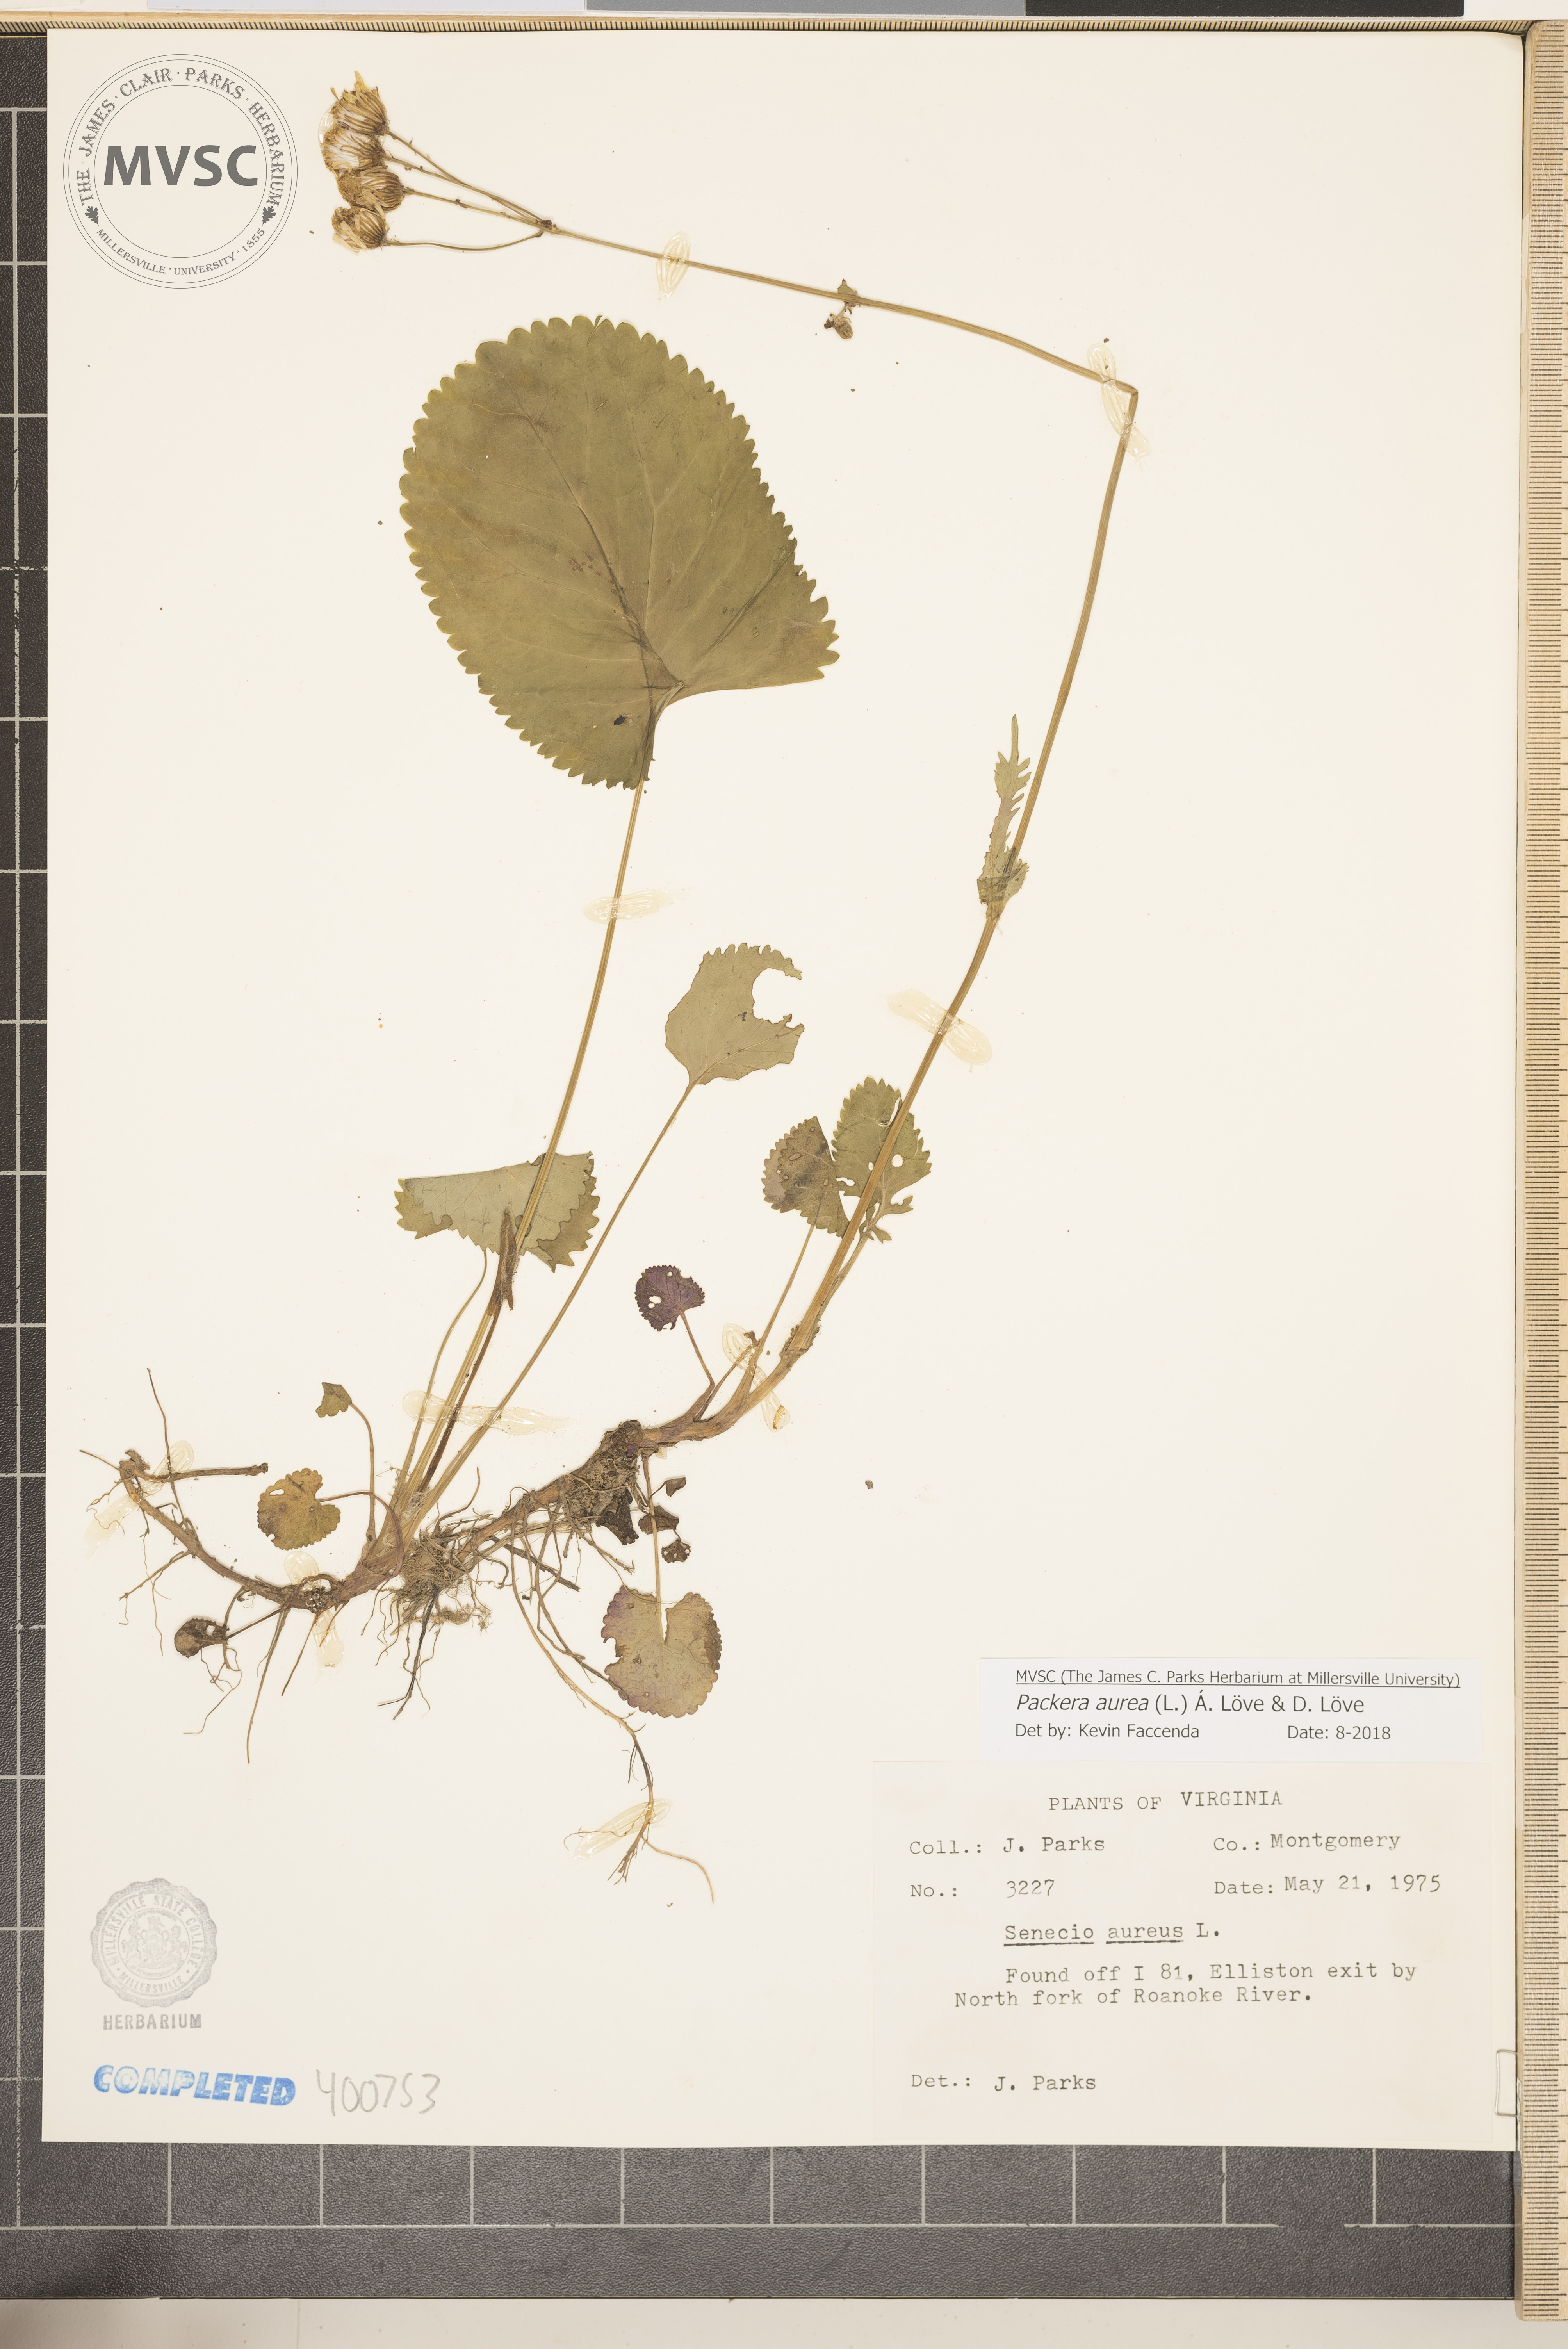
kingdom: Plantae
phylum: Tracheophyta
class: Magnoliopsida
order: Asterales
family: Asteraceae
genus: Packera
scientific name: Packera aurea
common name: Golden groundsel
